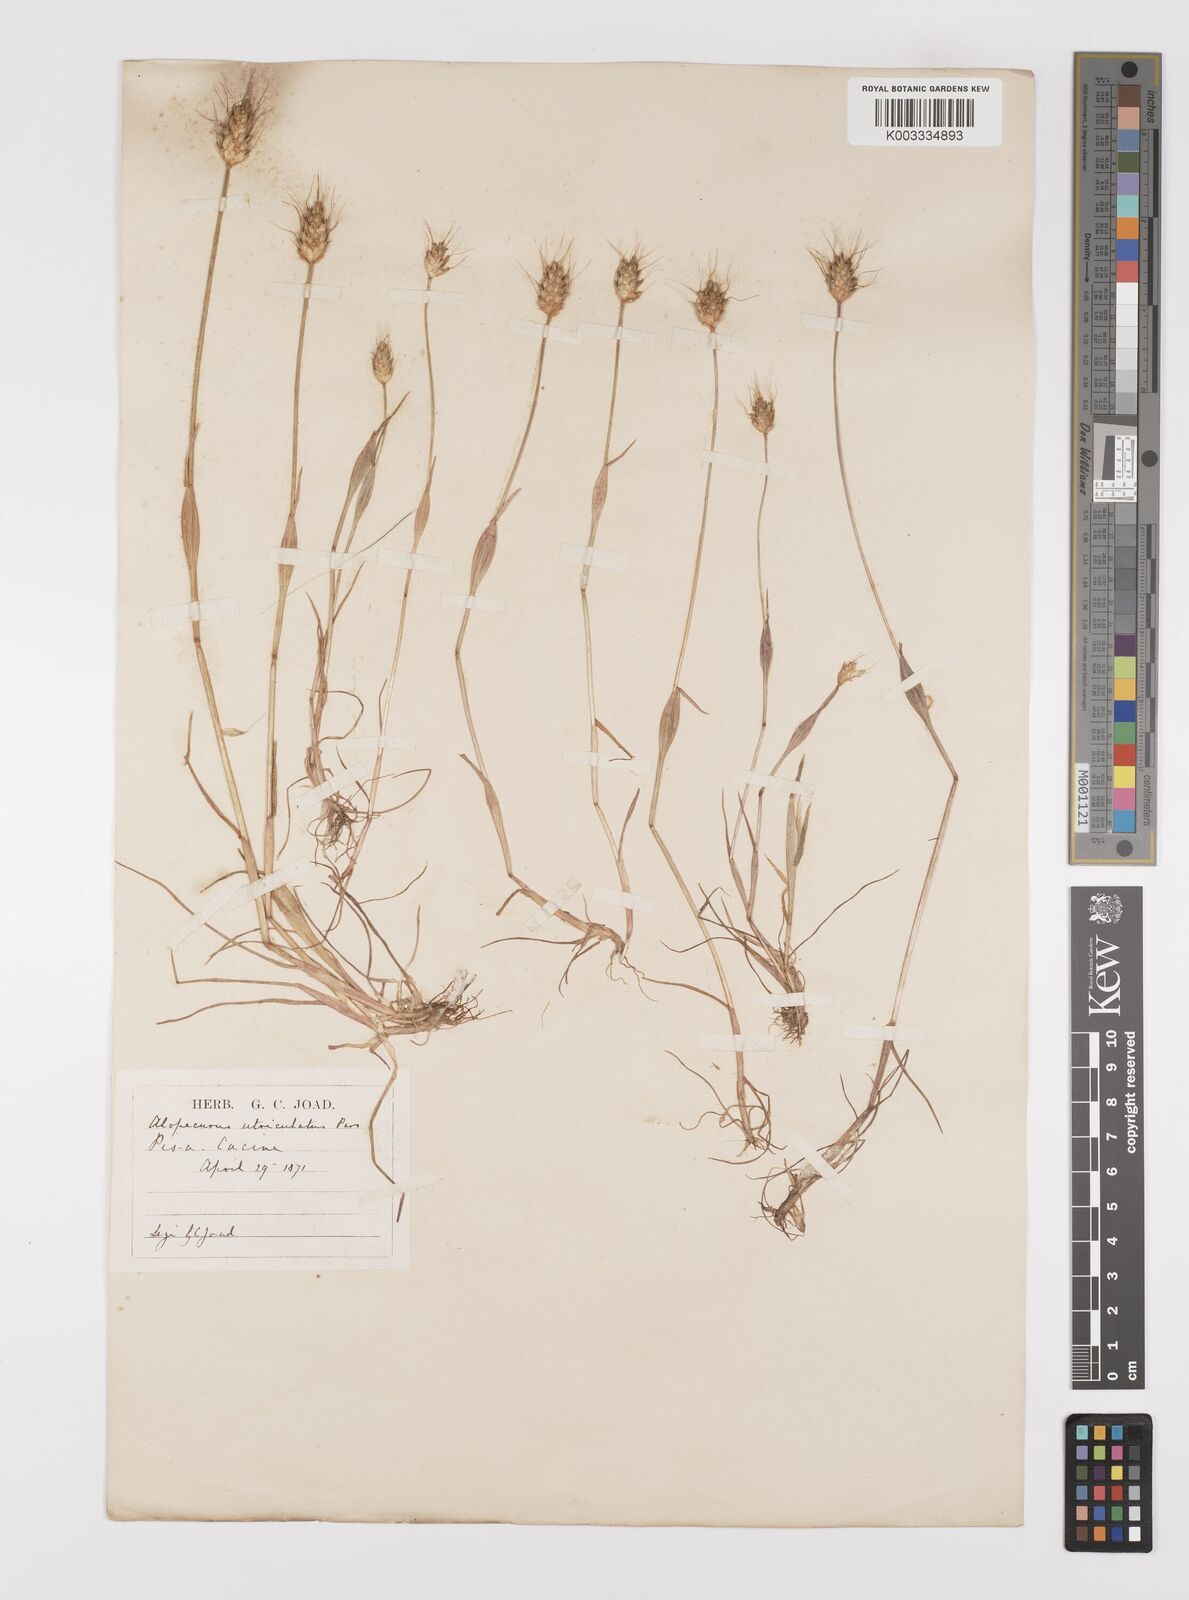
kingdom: Plantae
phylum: Tracheophyta
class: Liliopsida
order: Poales
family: Poaceae
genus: Alopecurus
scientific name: Alopecurus rendlei
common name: Rendle's meadow foxtail
